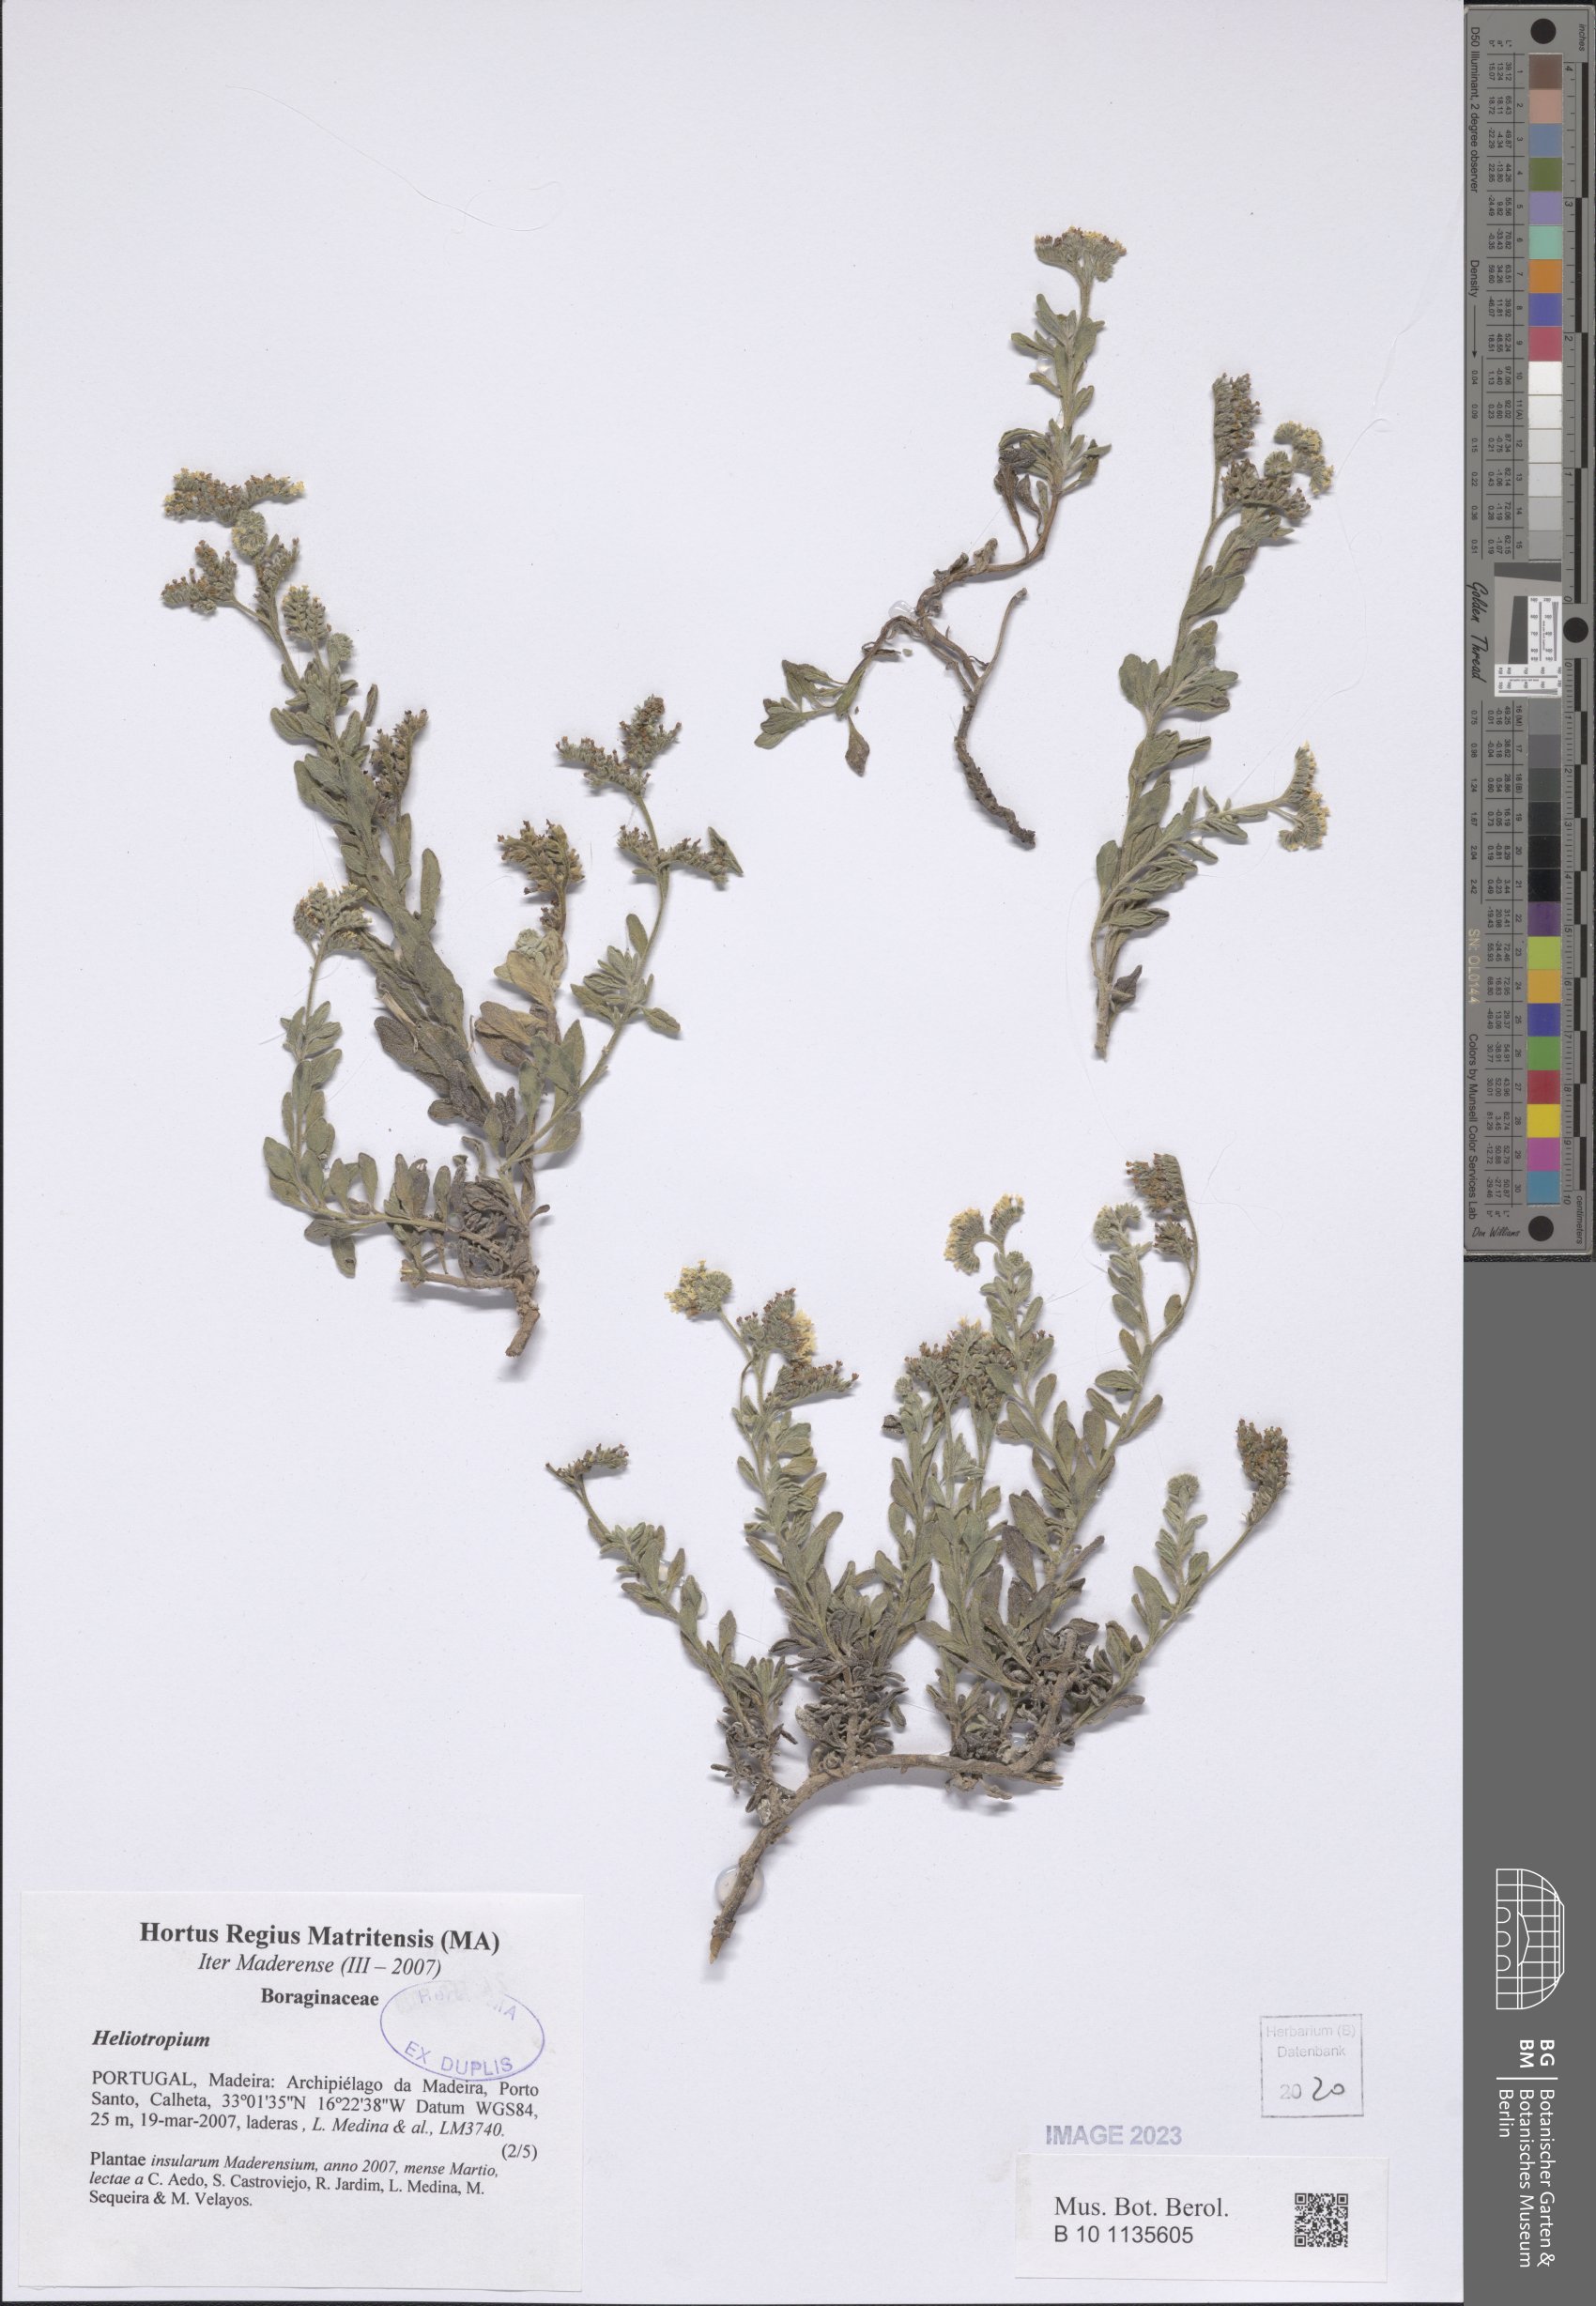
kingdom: Plantae
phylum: Tracheophyta
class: Magnoliopsida
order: Boraginales
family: Heliotropiaceae
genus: Heliotropium
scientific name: Heliotropium
